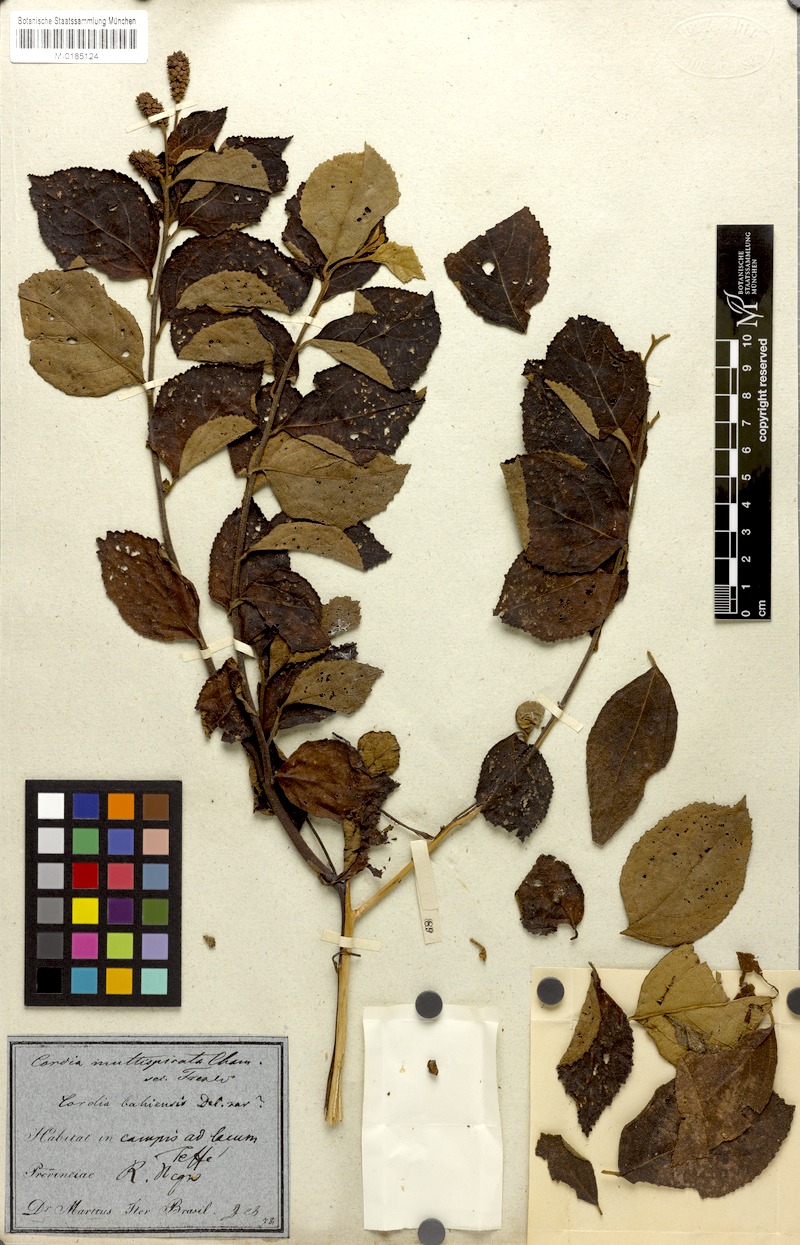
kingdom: Plantae
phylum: Tracheophyta
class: Magnoliopsida
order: Boraginales
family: Cordiaceae
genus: Varronia
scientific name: Varronia multispicata
